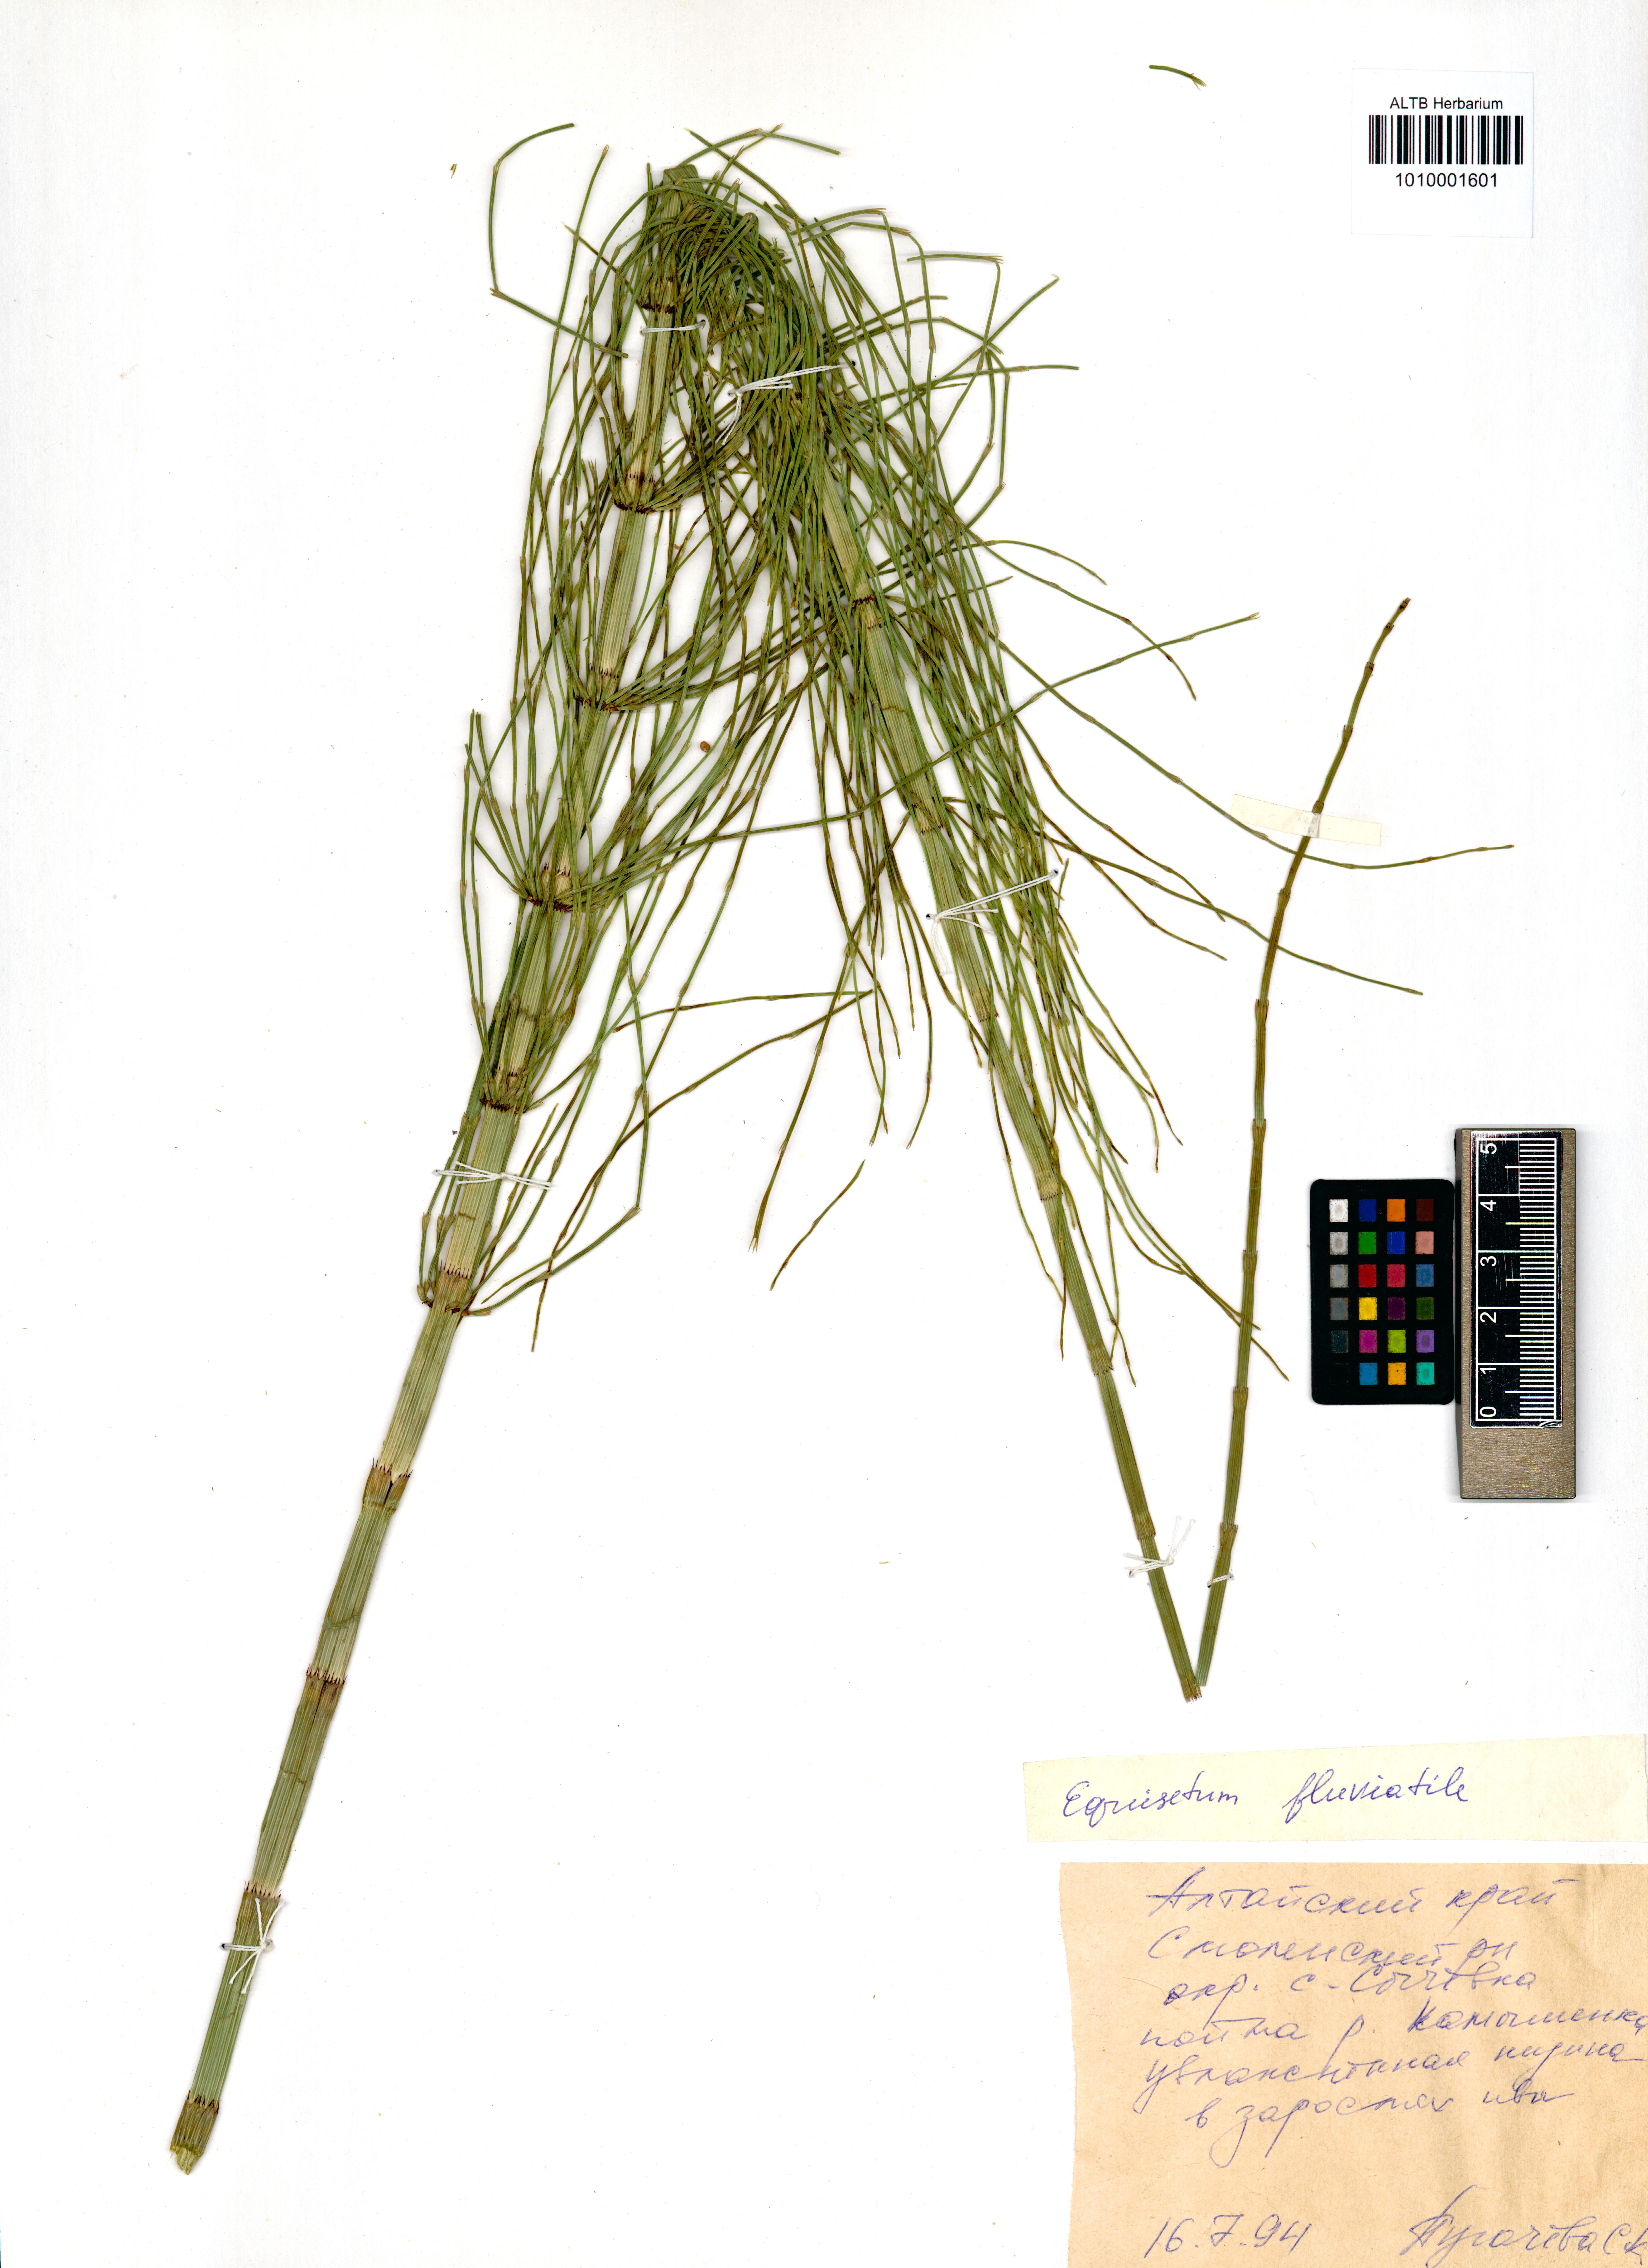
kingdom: Plantae
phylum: Tracheophyta
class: Polypodiopsida
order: Equisetales
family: Equisetaceae
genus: Equisetum
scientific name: Equisetum fluviatile
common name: Water horsetail
